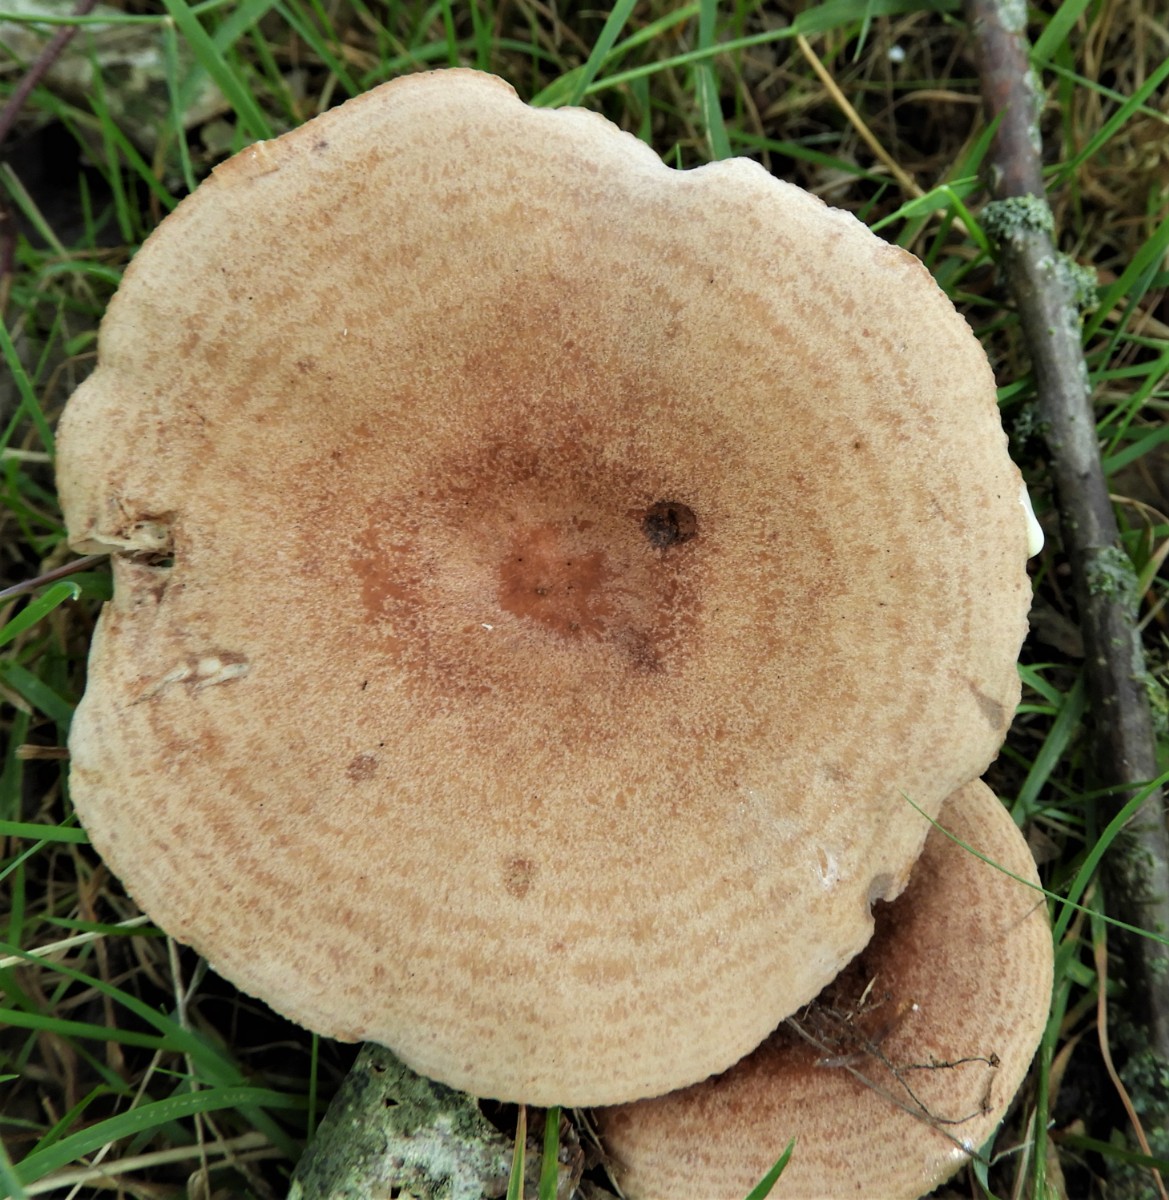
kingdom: Fungi
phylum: Basidiomycota
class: Agaricomycetes
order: Russulales
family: Russulaceae
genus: Lactarius
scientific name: Lactarius quietus
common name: ege-mælkehat
